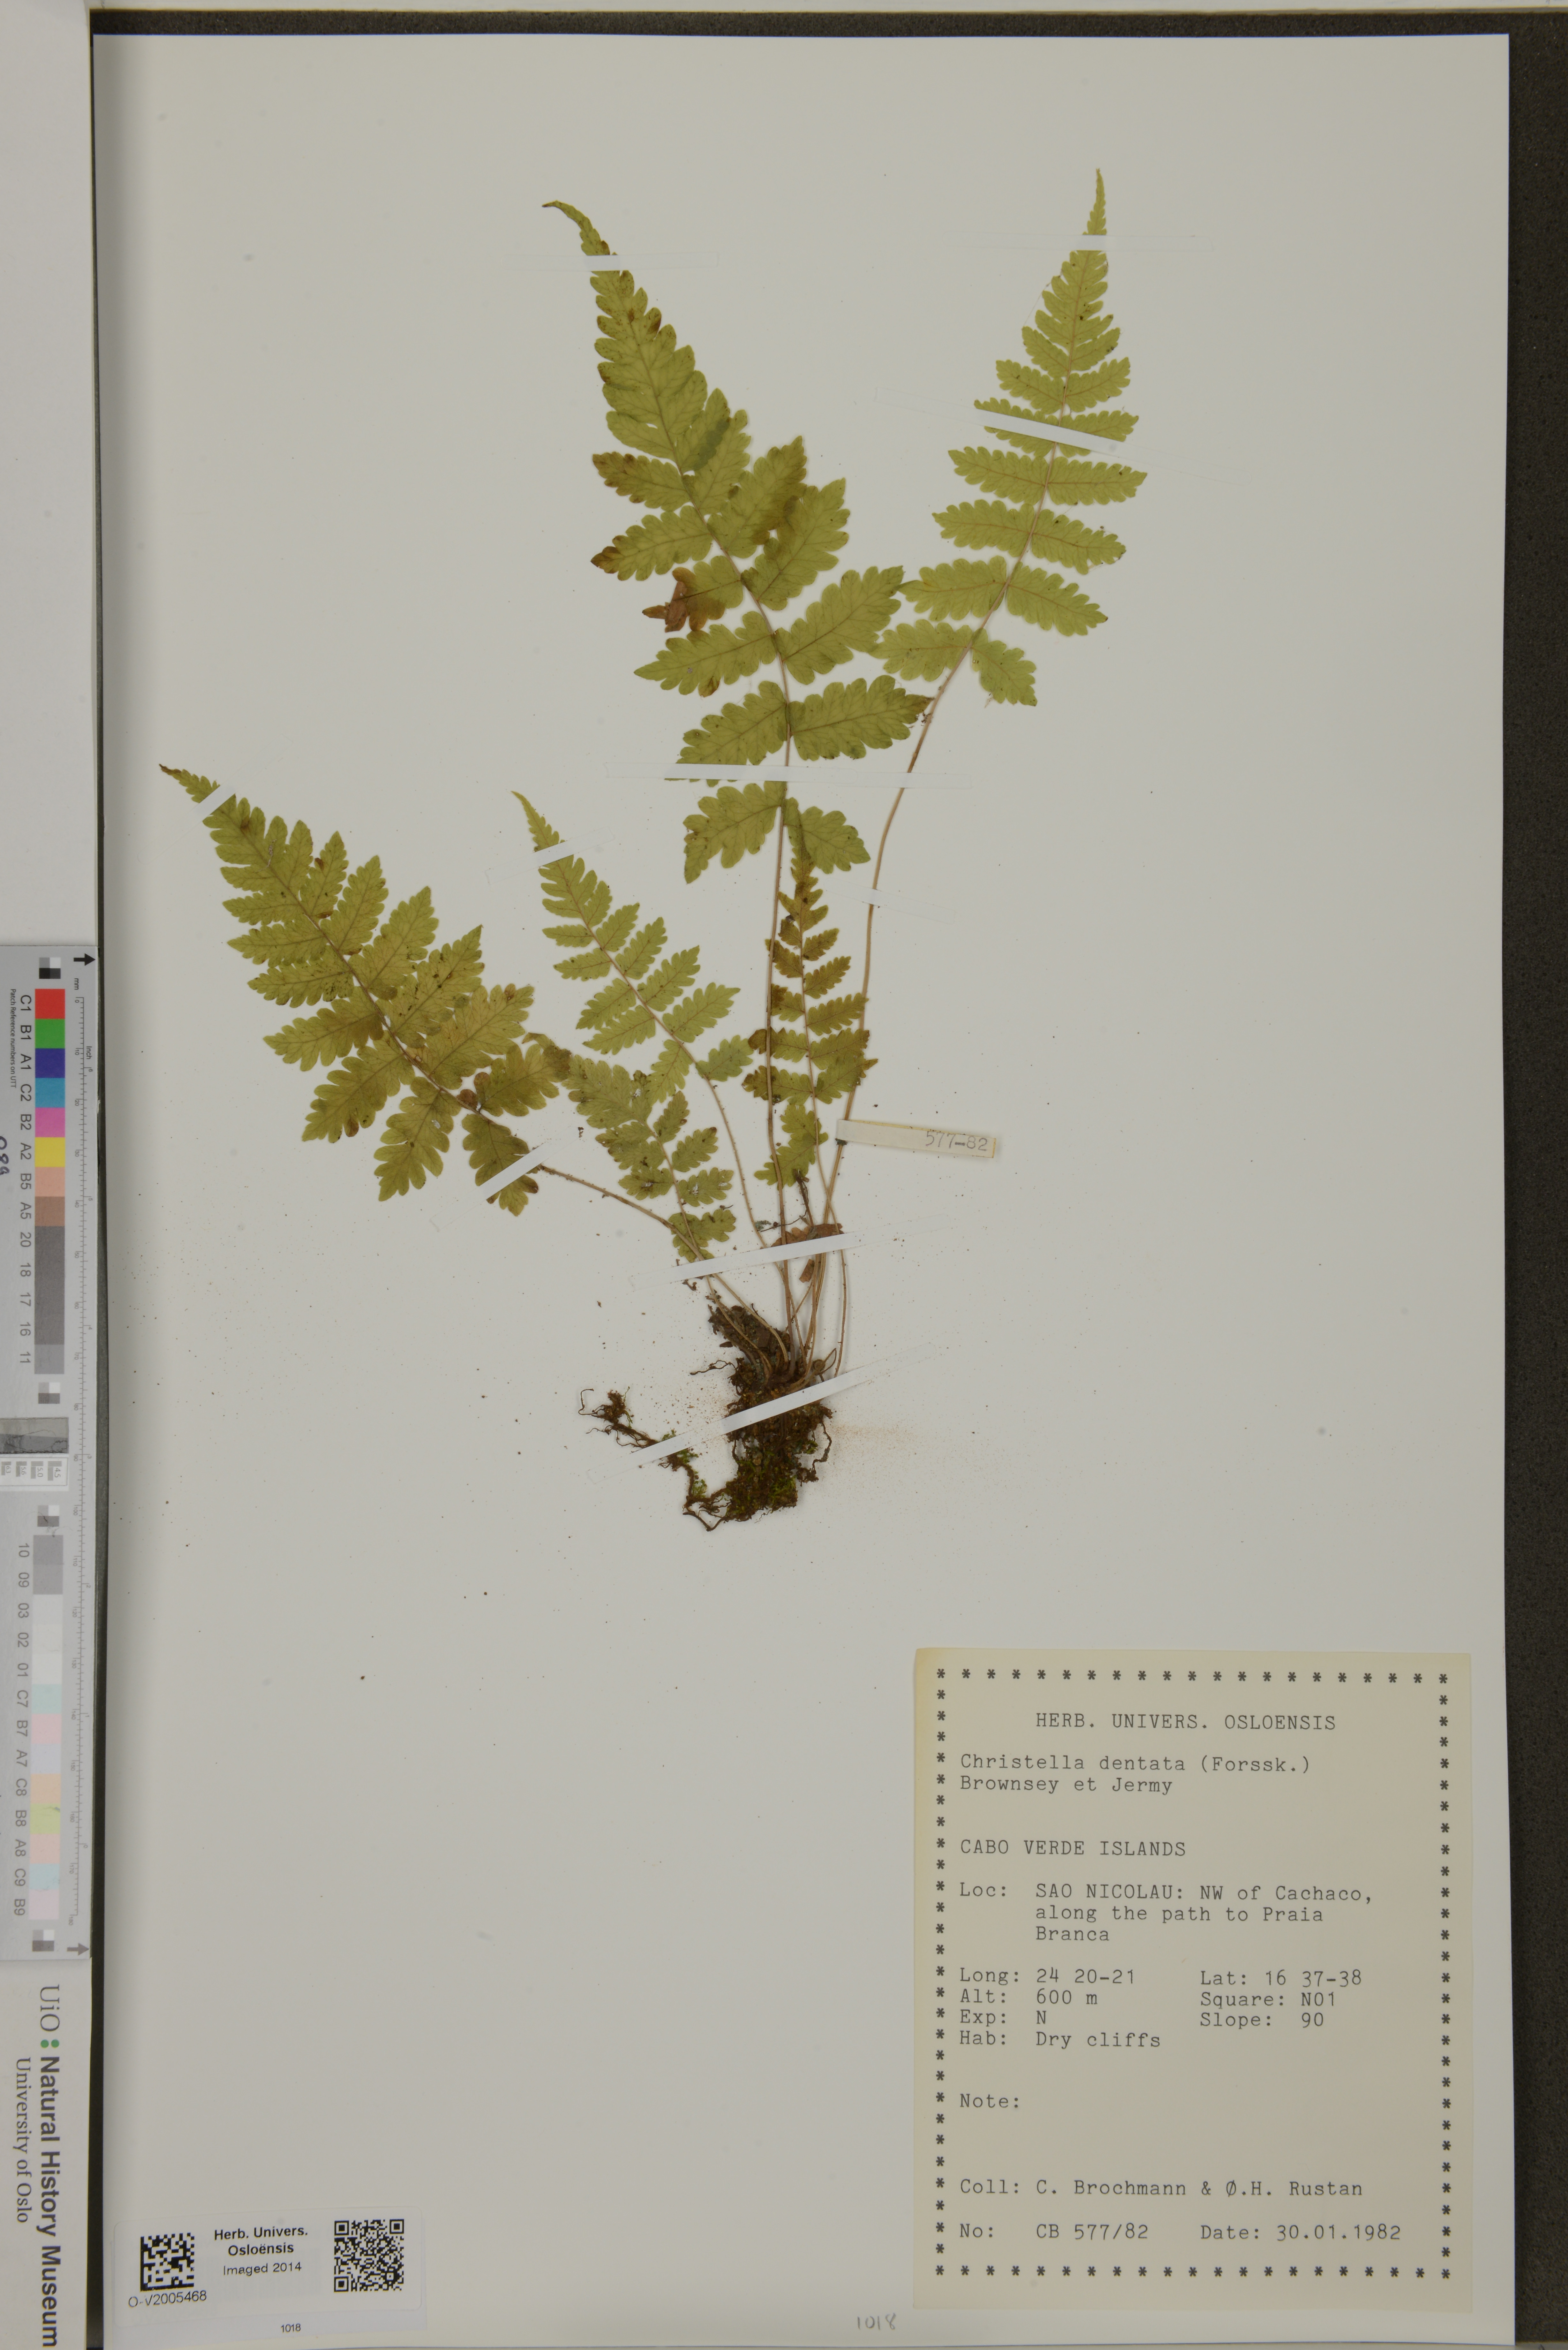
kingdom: Plantae
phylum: Tracheophyta
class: Polypodiopsida
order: Polypodiales
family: Thelypteridaceae
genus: Christella
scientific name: Christella dentata
